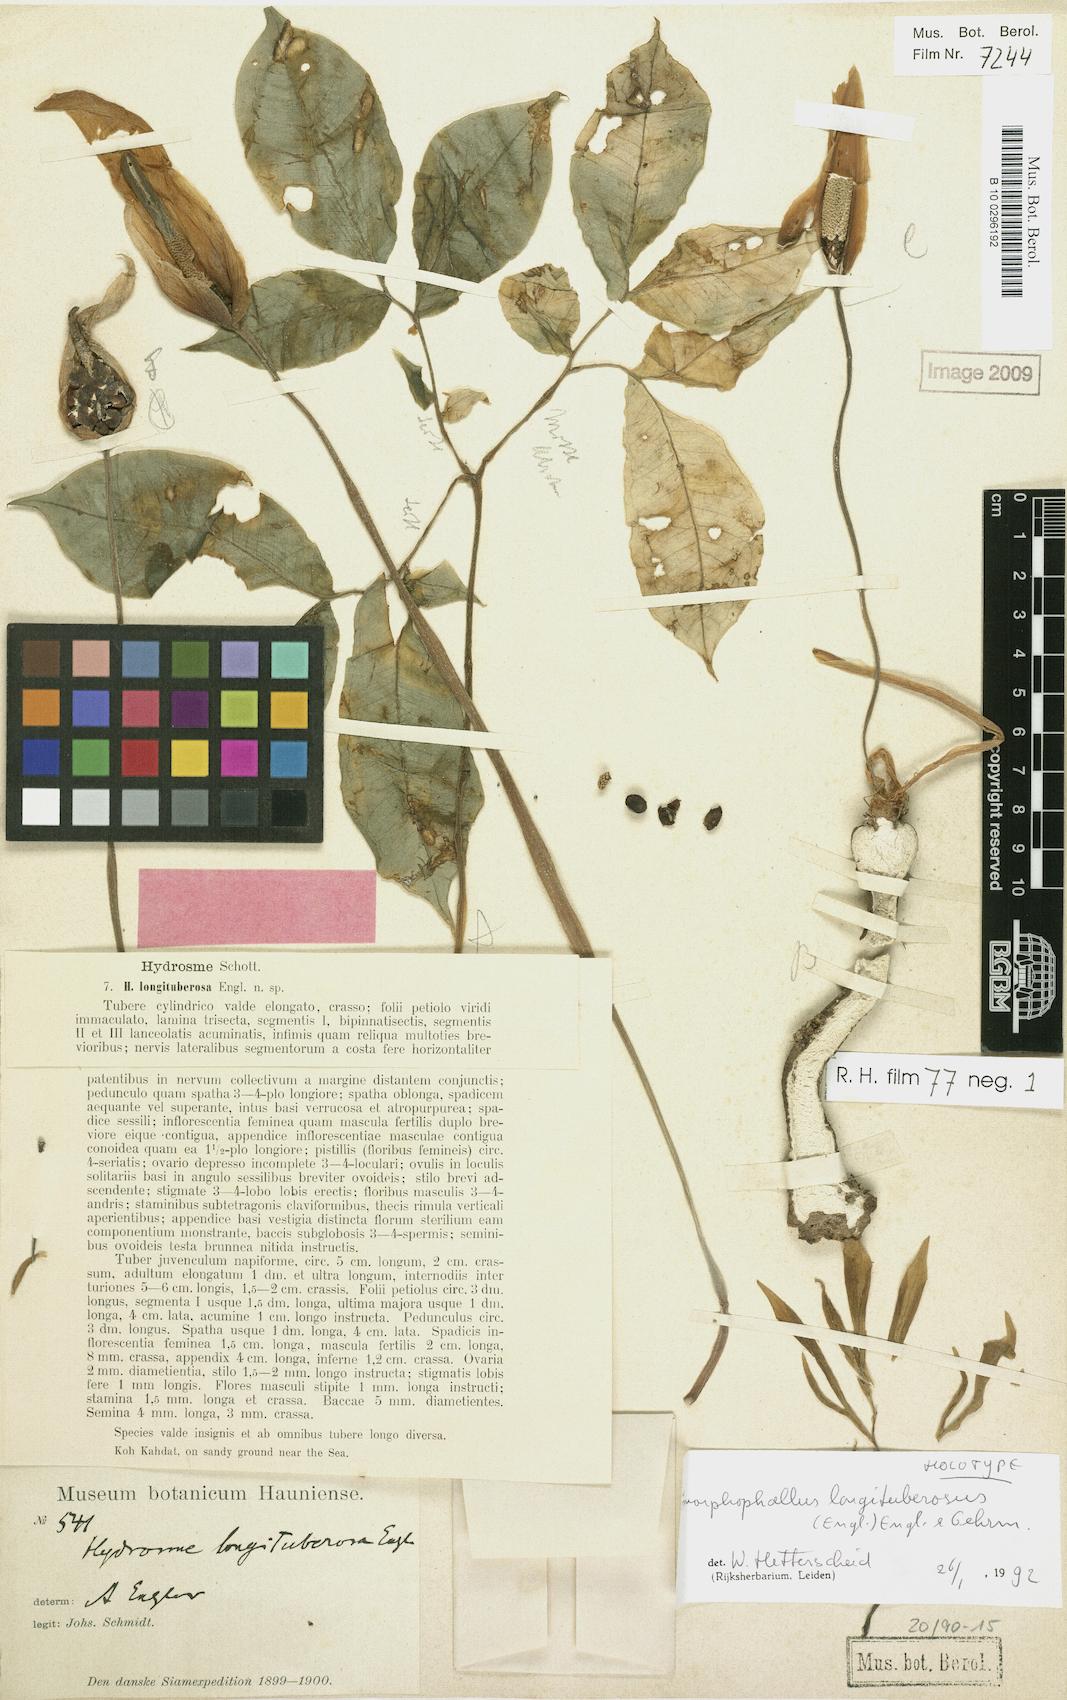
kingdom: Plantae
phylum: Tracheophyta
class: Liliopsida
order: Alismatales
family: Araceae
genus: Amorphophallus
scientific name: Amorphophallus longituberosus
